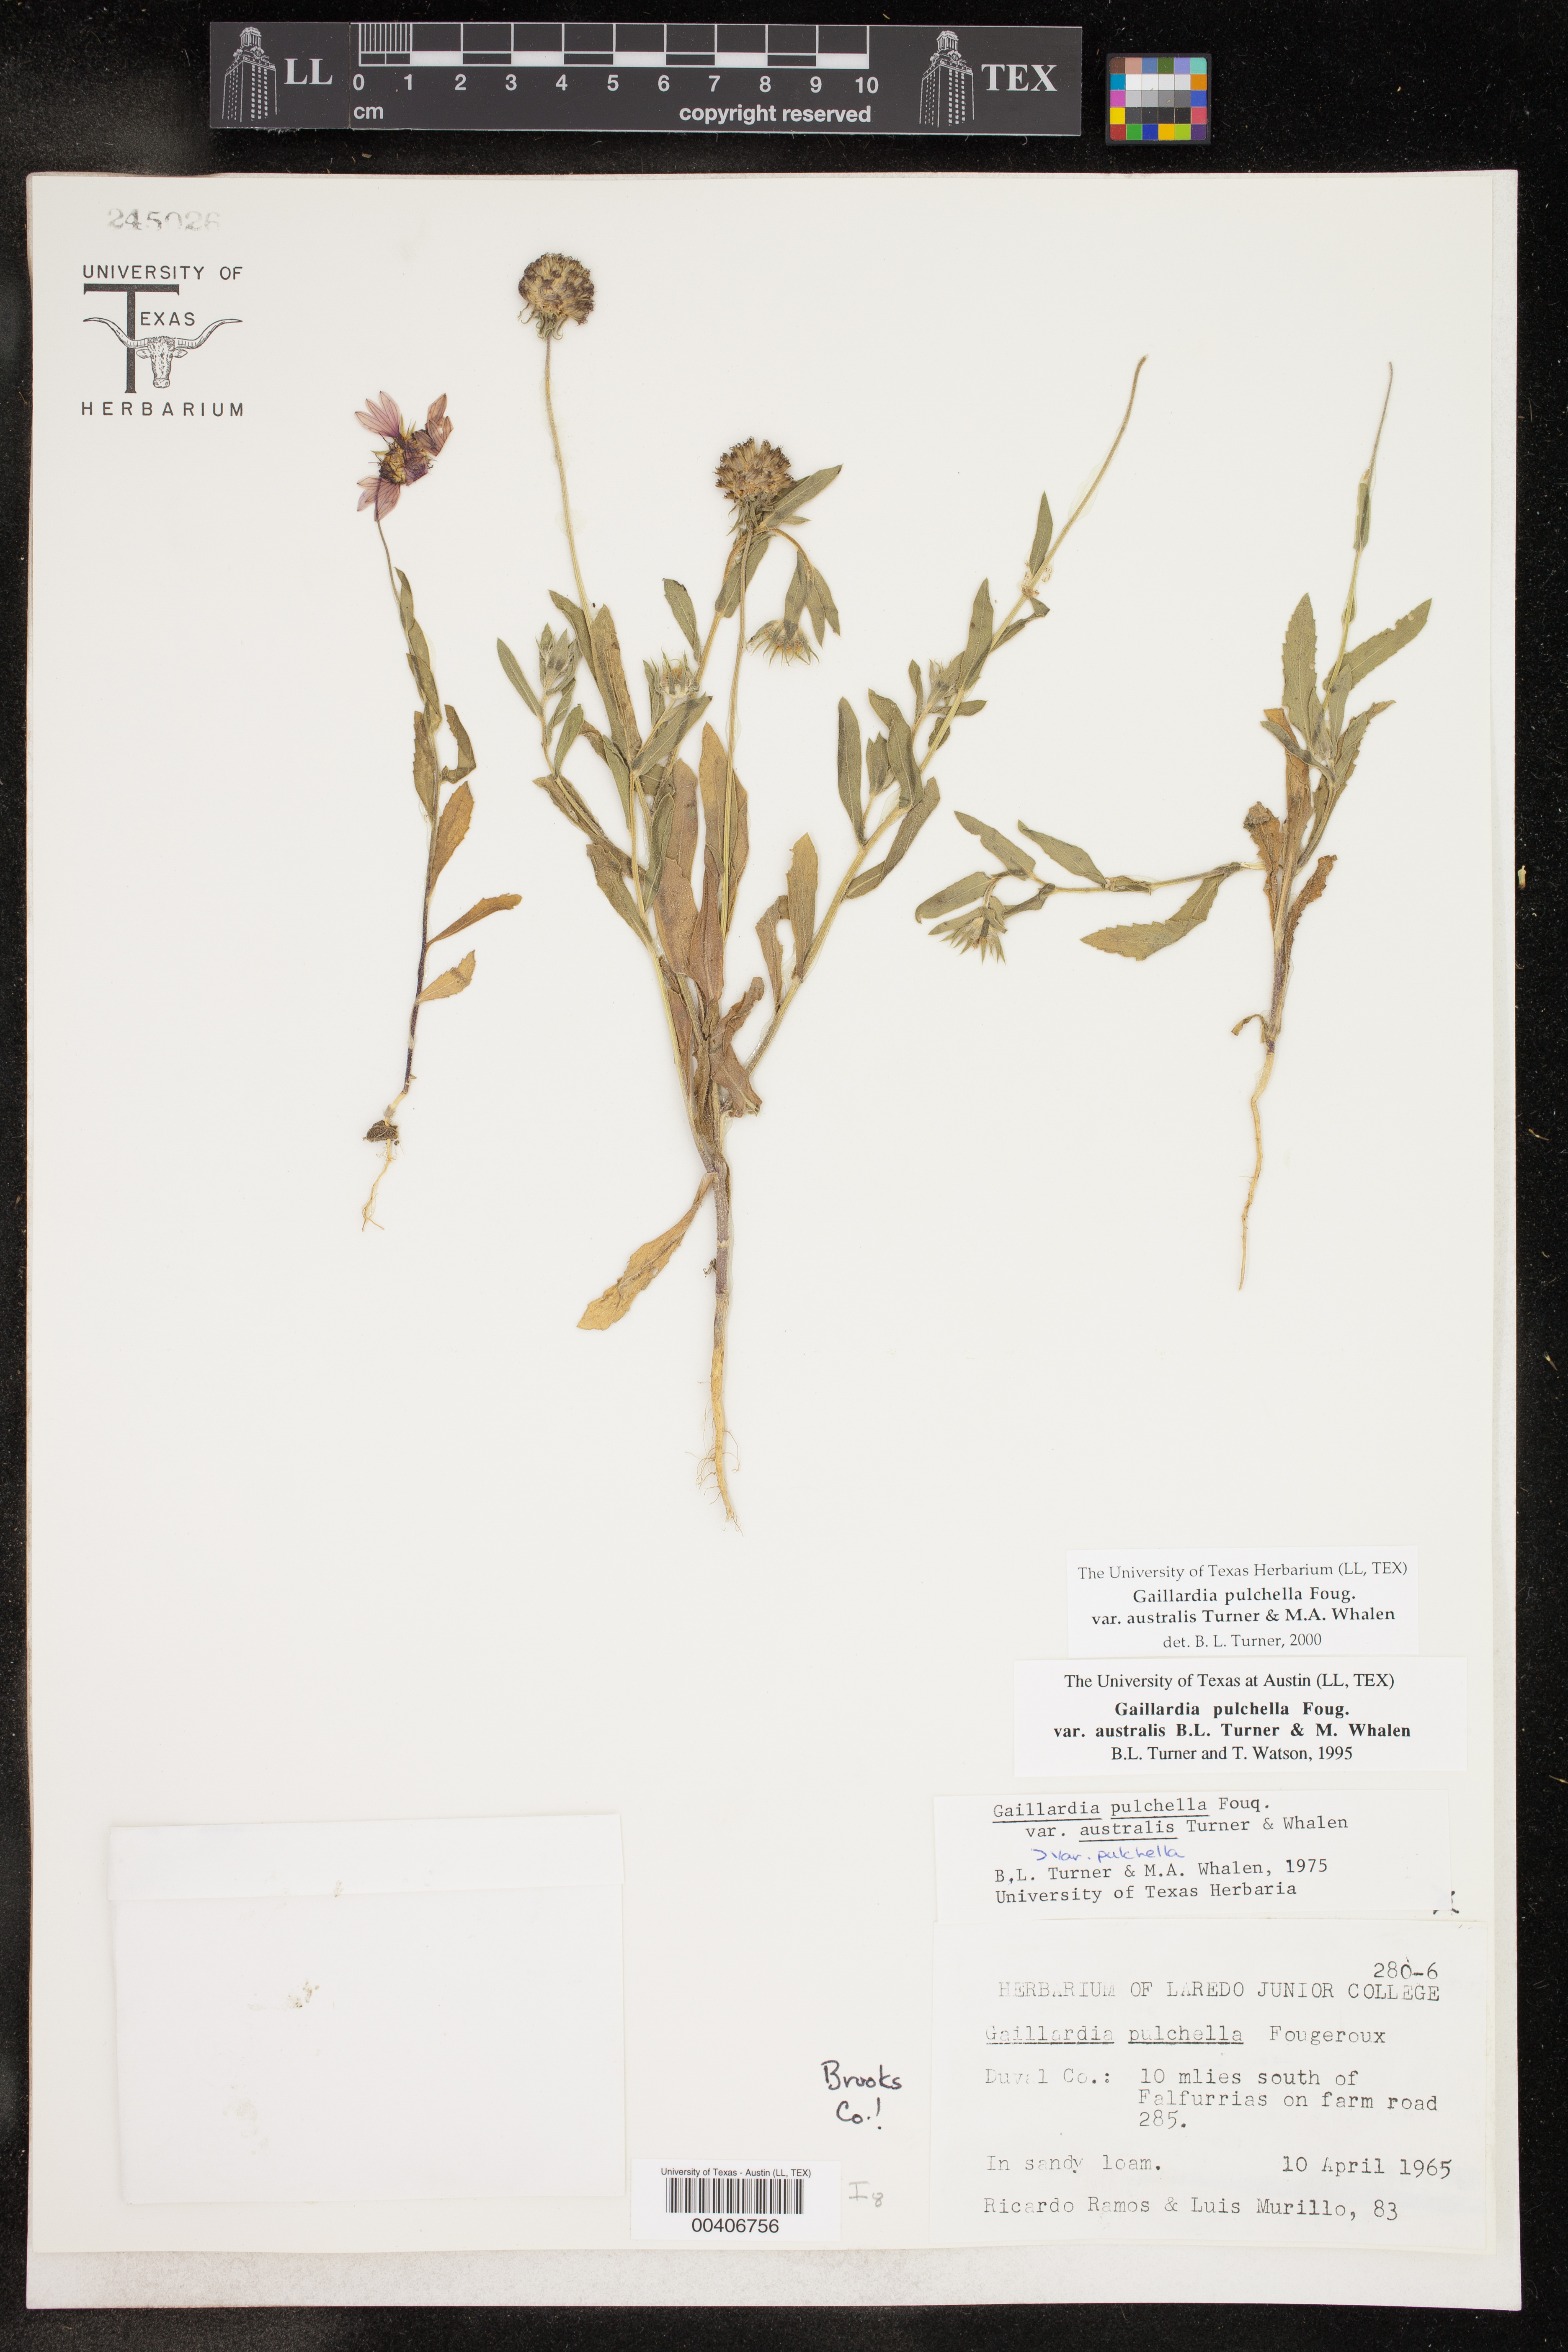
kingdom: Plantae
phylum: Tracheophyta
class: Magnoliopsida
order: Asterales
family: Asteraceae
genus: Gaillardia
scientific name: Gaillardia pulchella
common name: Firewheel
